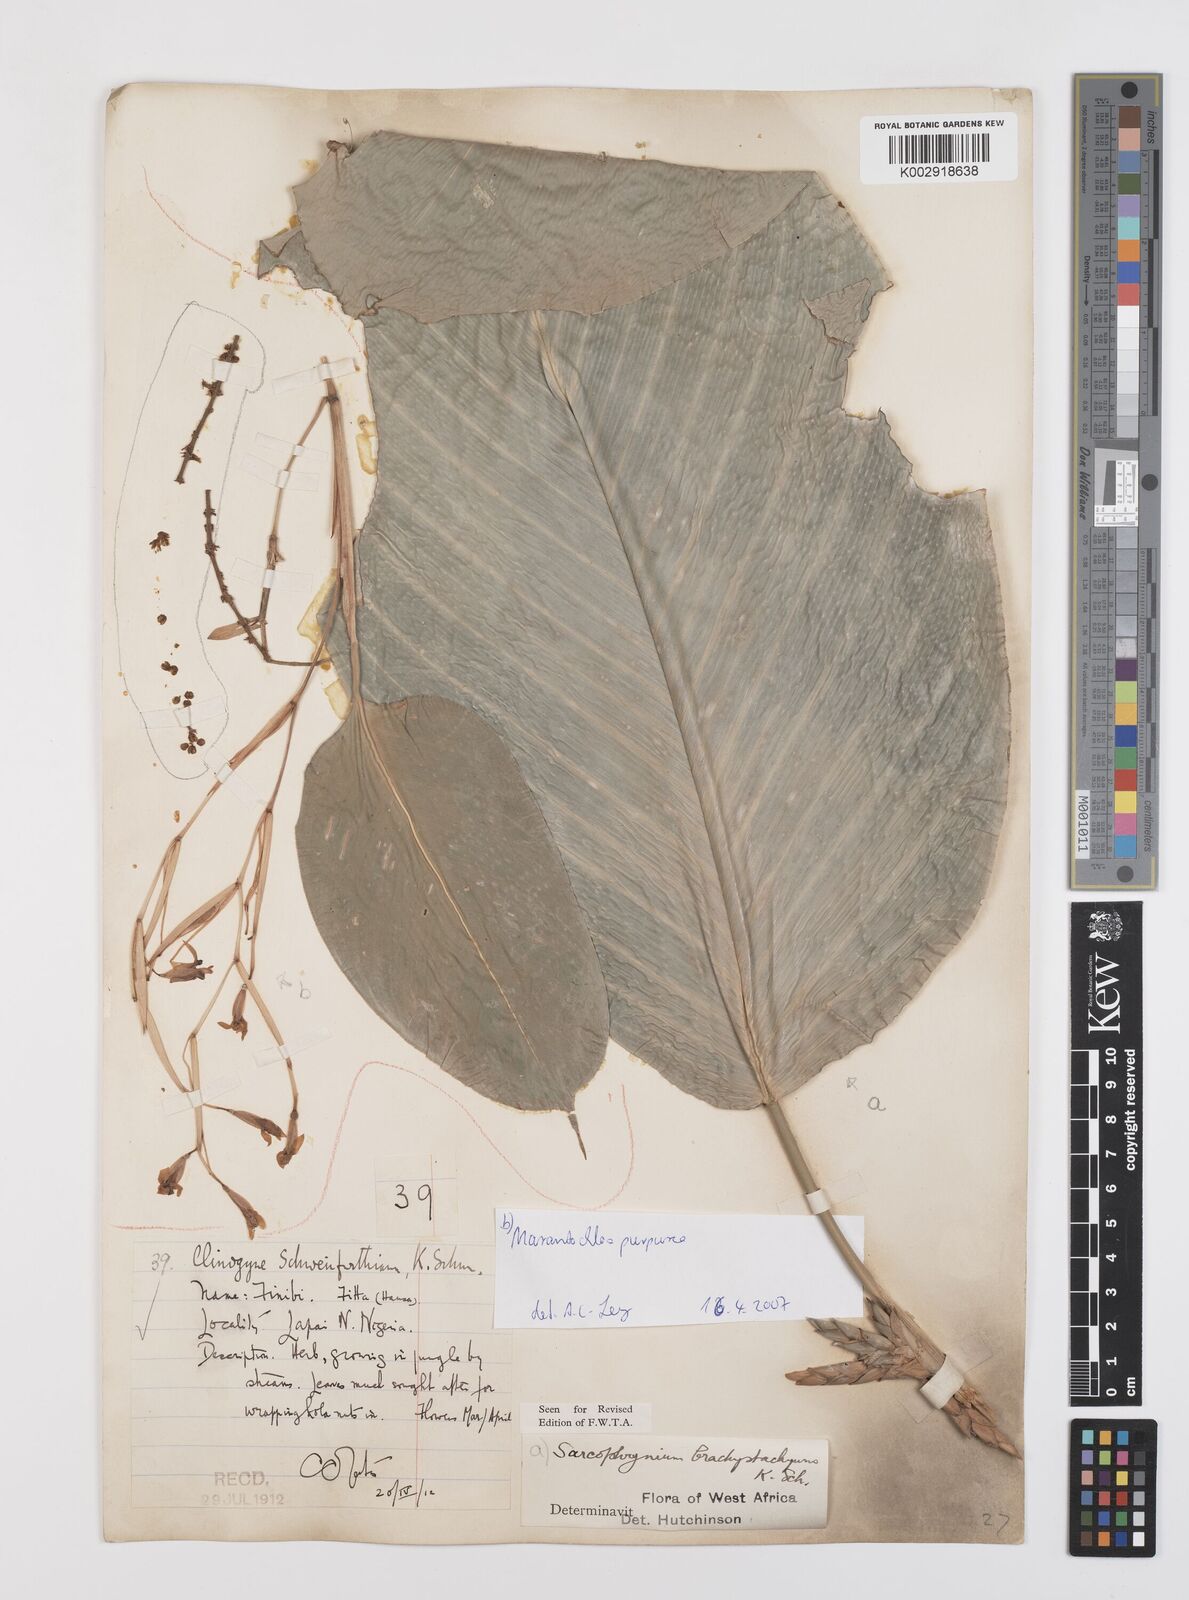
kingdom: Plantae
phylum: Tracheophyta
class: Liliopsida
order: Zingiberales
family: Marantaceae
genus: Sarcophrynium
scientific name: Sarcophrynium brachystachyum
